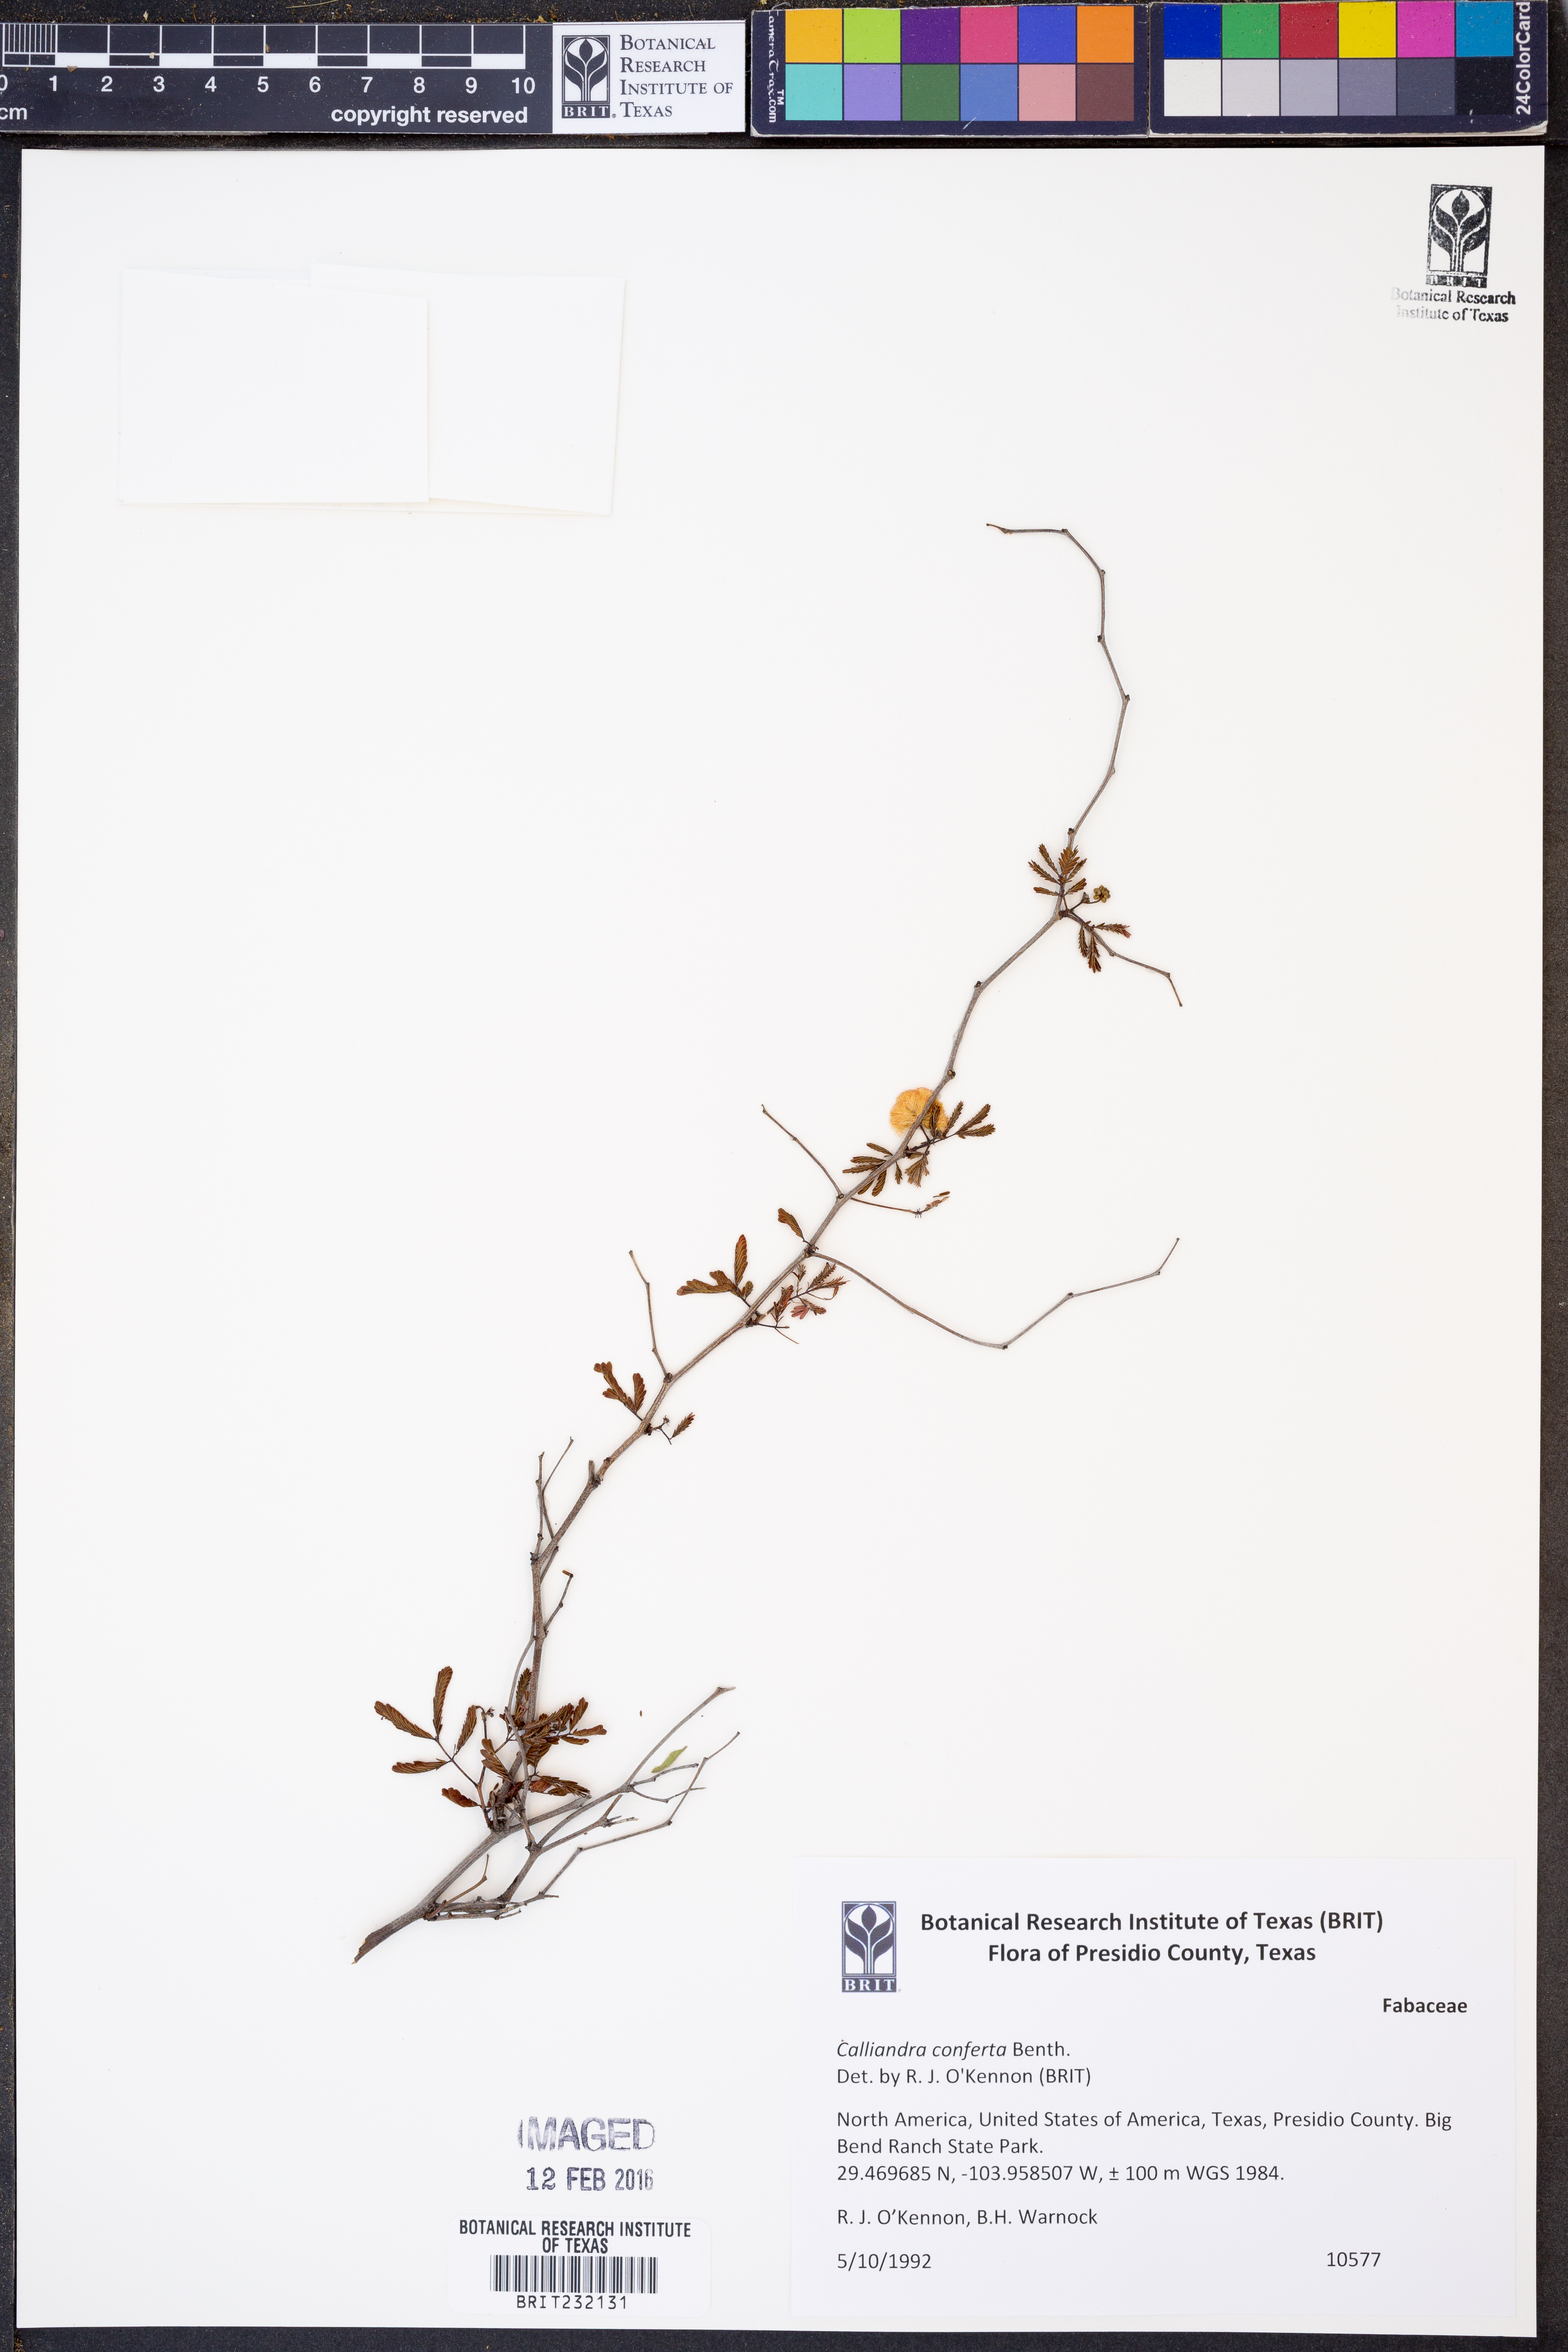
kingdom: Plantae
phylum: Tracheophyta
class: Magnoliopsida
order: Fabales
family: Fabaceae
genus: Calliandra
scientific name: Calliandra conferta
